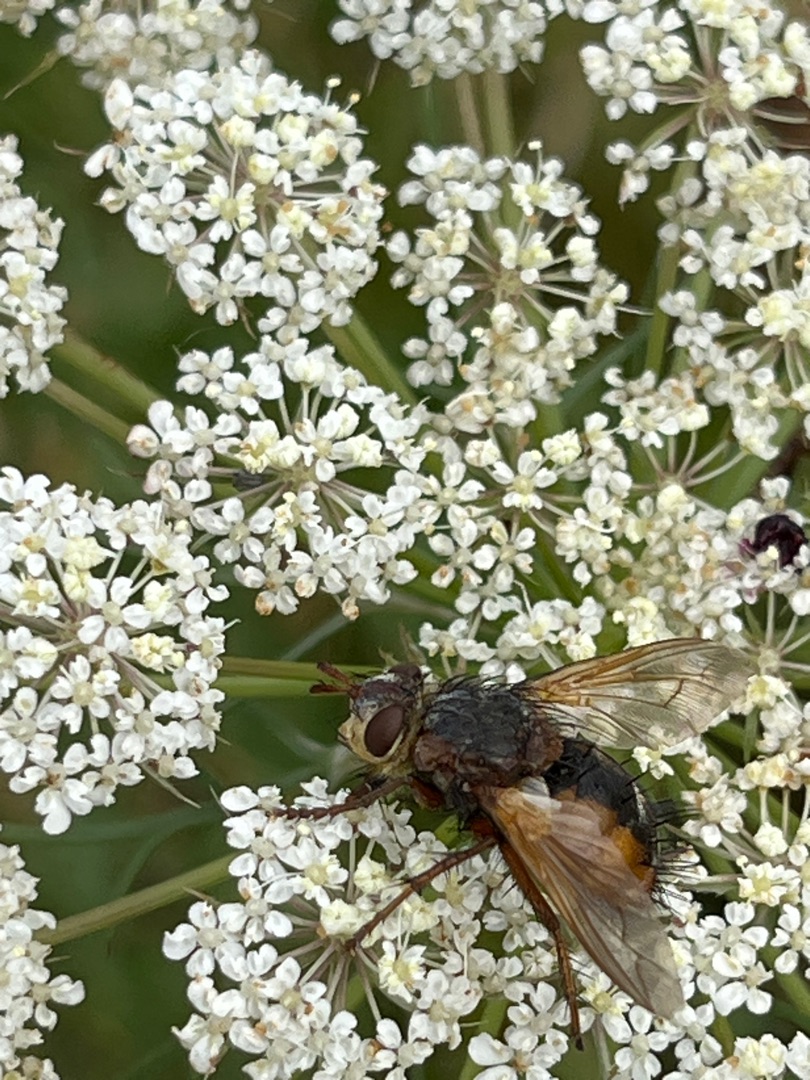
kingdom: Animalia
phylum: Arthropoda
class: Insecta
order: Diptera
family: Tachinidae
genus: Tachina
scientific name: Tachina fera
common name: Mellemfluen oskar
